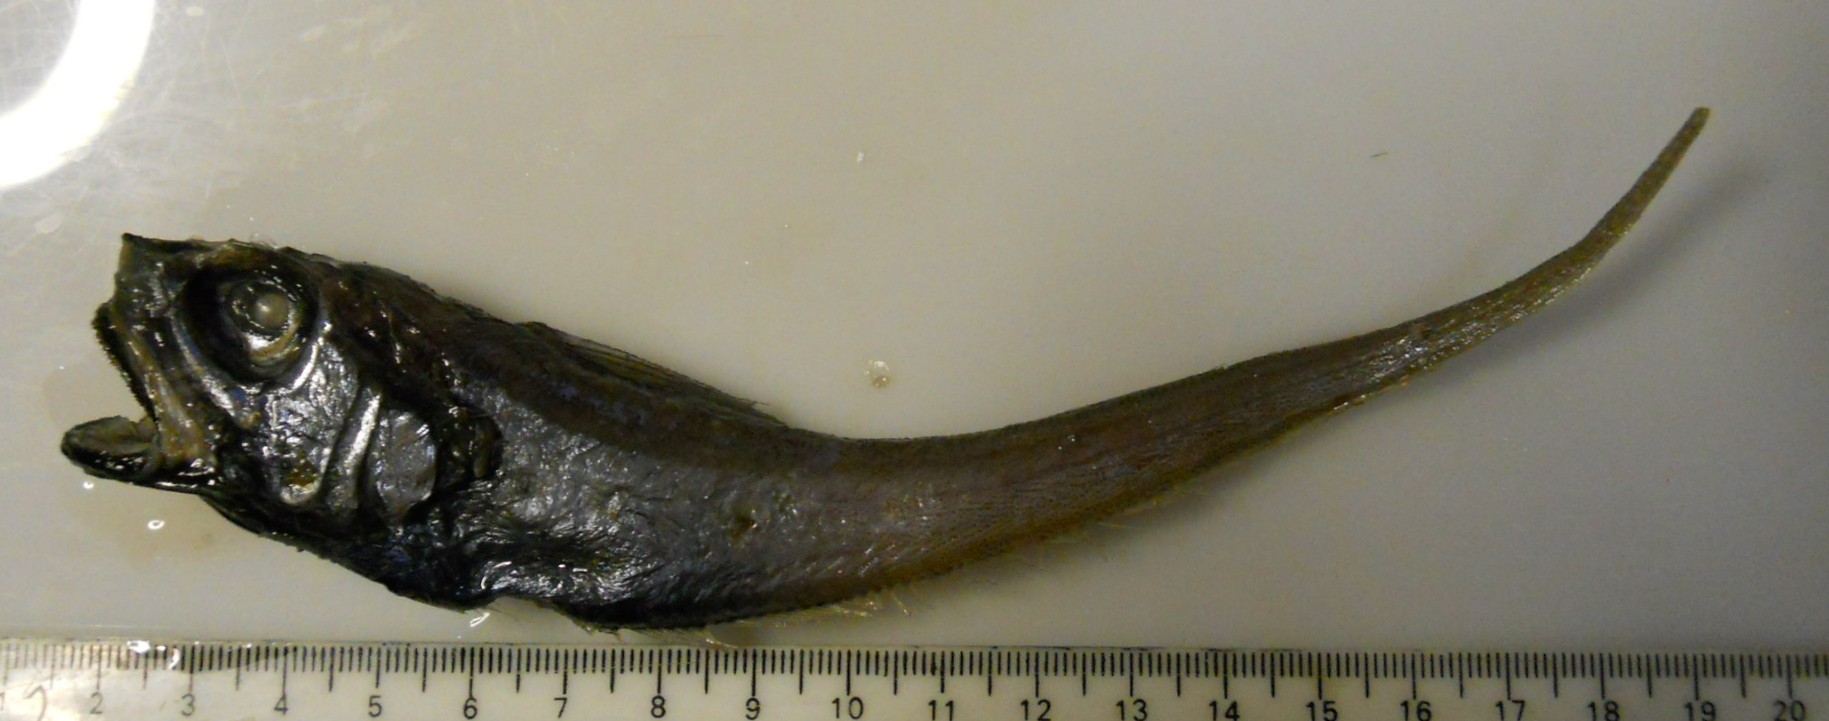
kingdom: Animalia
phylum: Chordata
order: Gadiformes
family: Macrouridae
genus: Ventrifossa
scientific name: Ventrifossa mystax
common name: Plainfin grenadier
